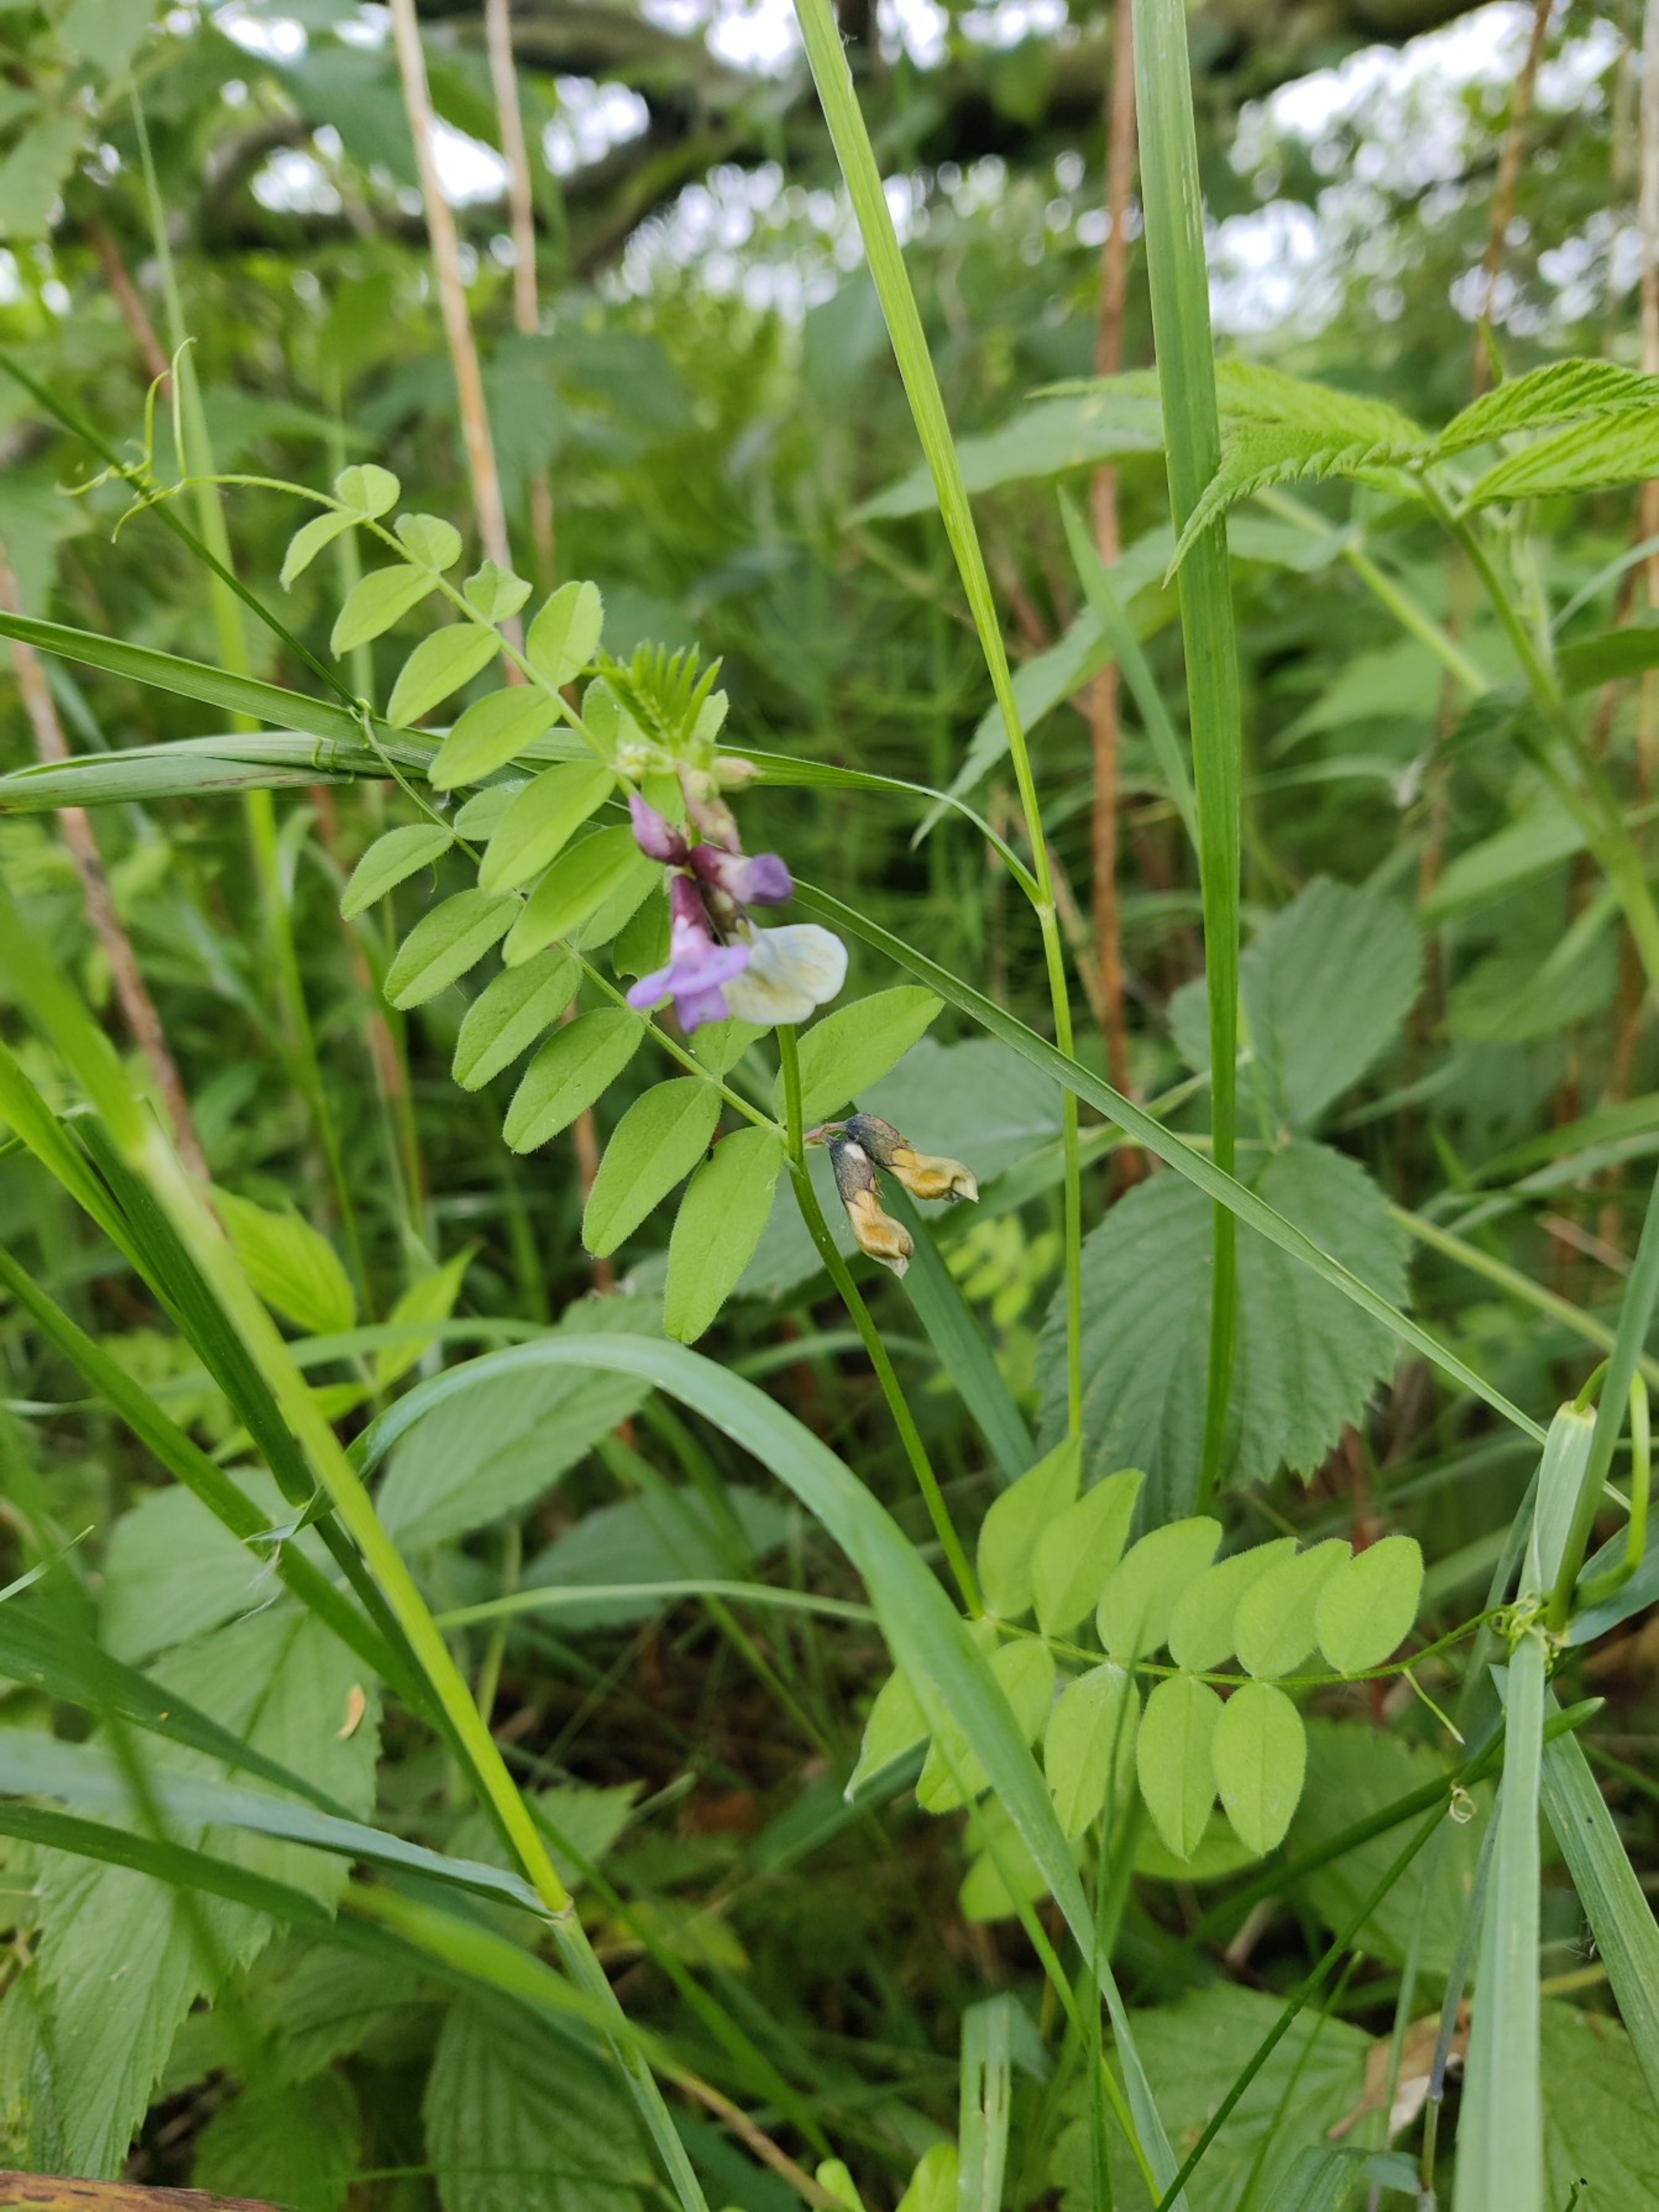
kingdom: Plantae
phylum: Tracheophyta
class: Magnoliopsida
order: Fabales
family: Fabaceae
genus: Vicia
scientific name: Vicia sepium
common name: Gærde-vikke
